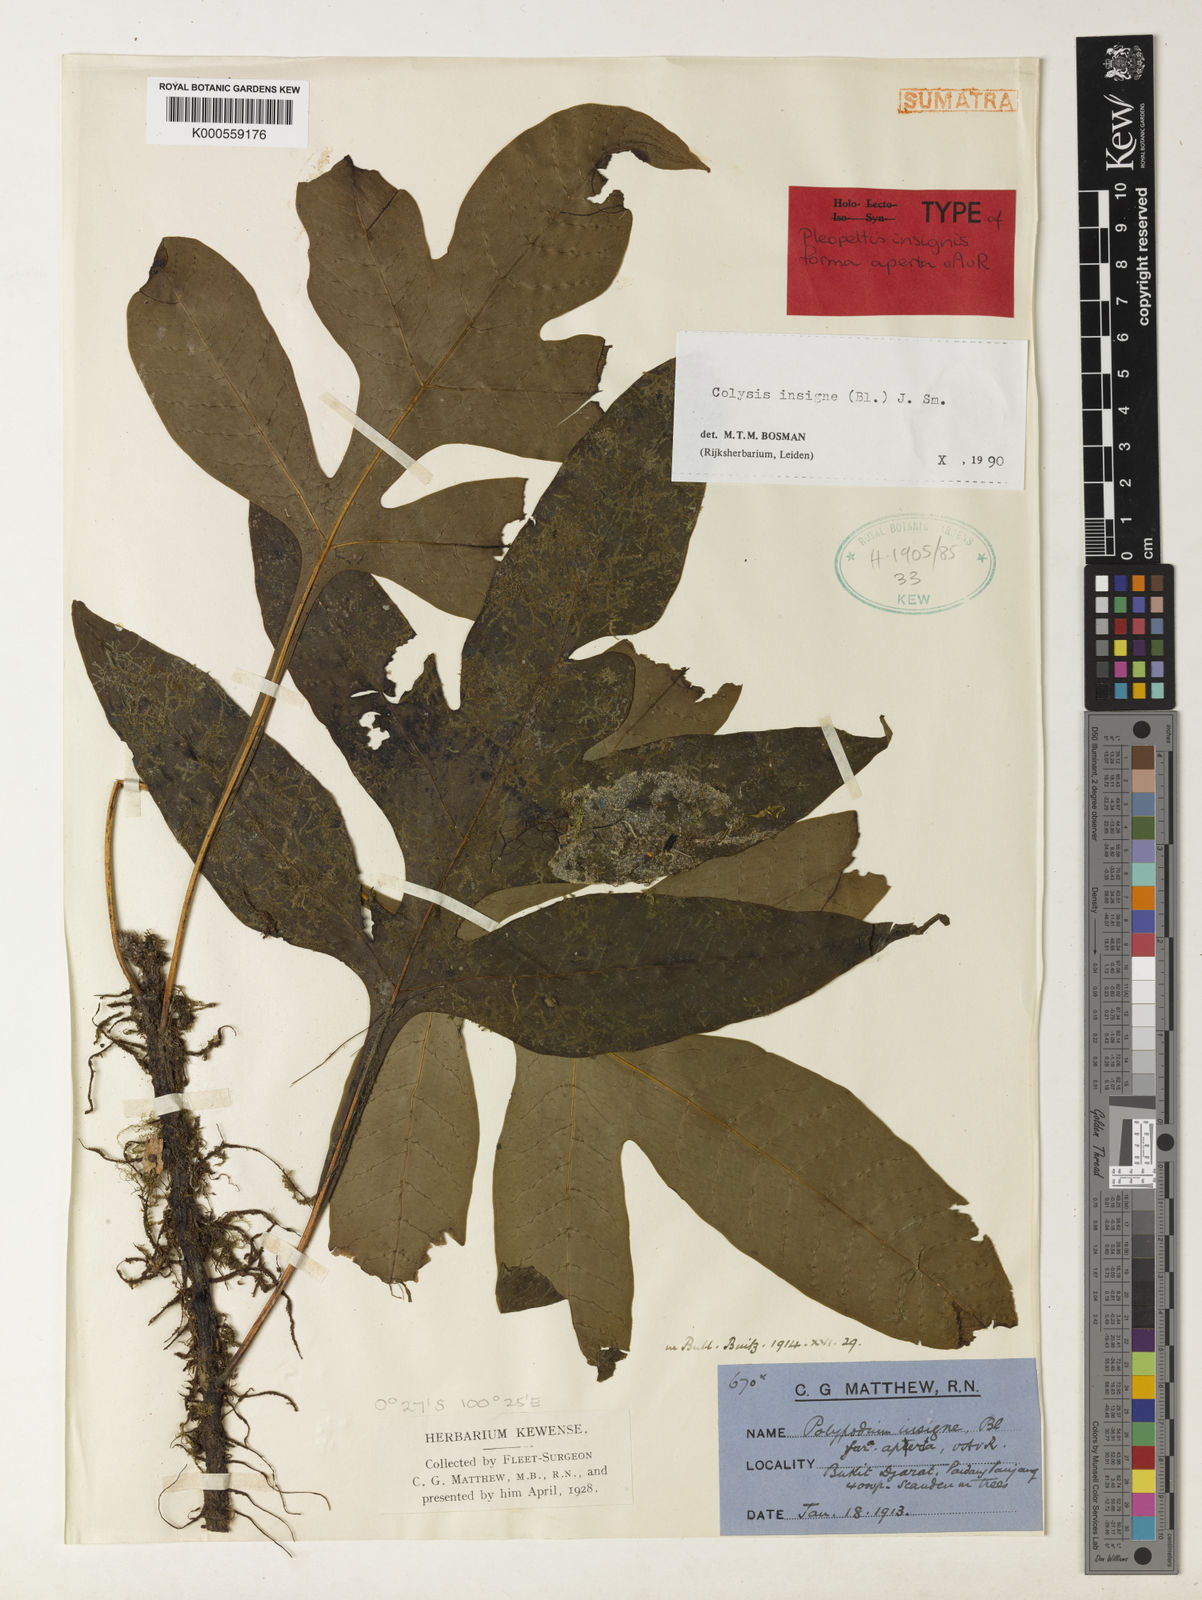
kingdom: Plantae
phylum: Tracheophyta
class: Polypodiopsida
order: Polypodiales
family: Polypodiaceae
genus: Leptochilus
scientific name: Leptochilus insignis
